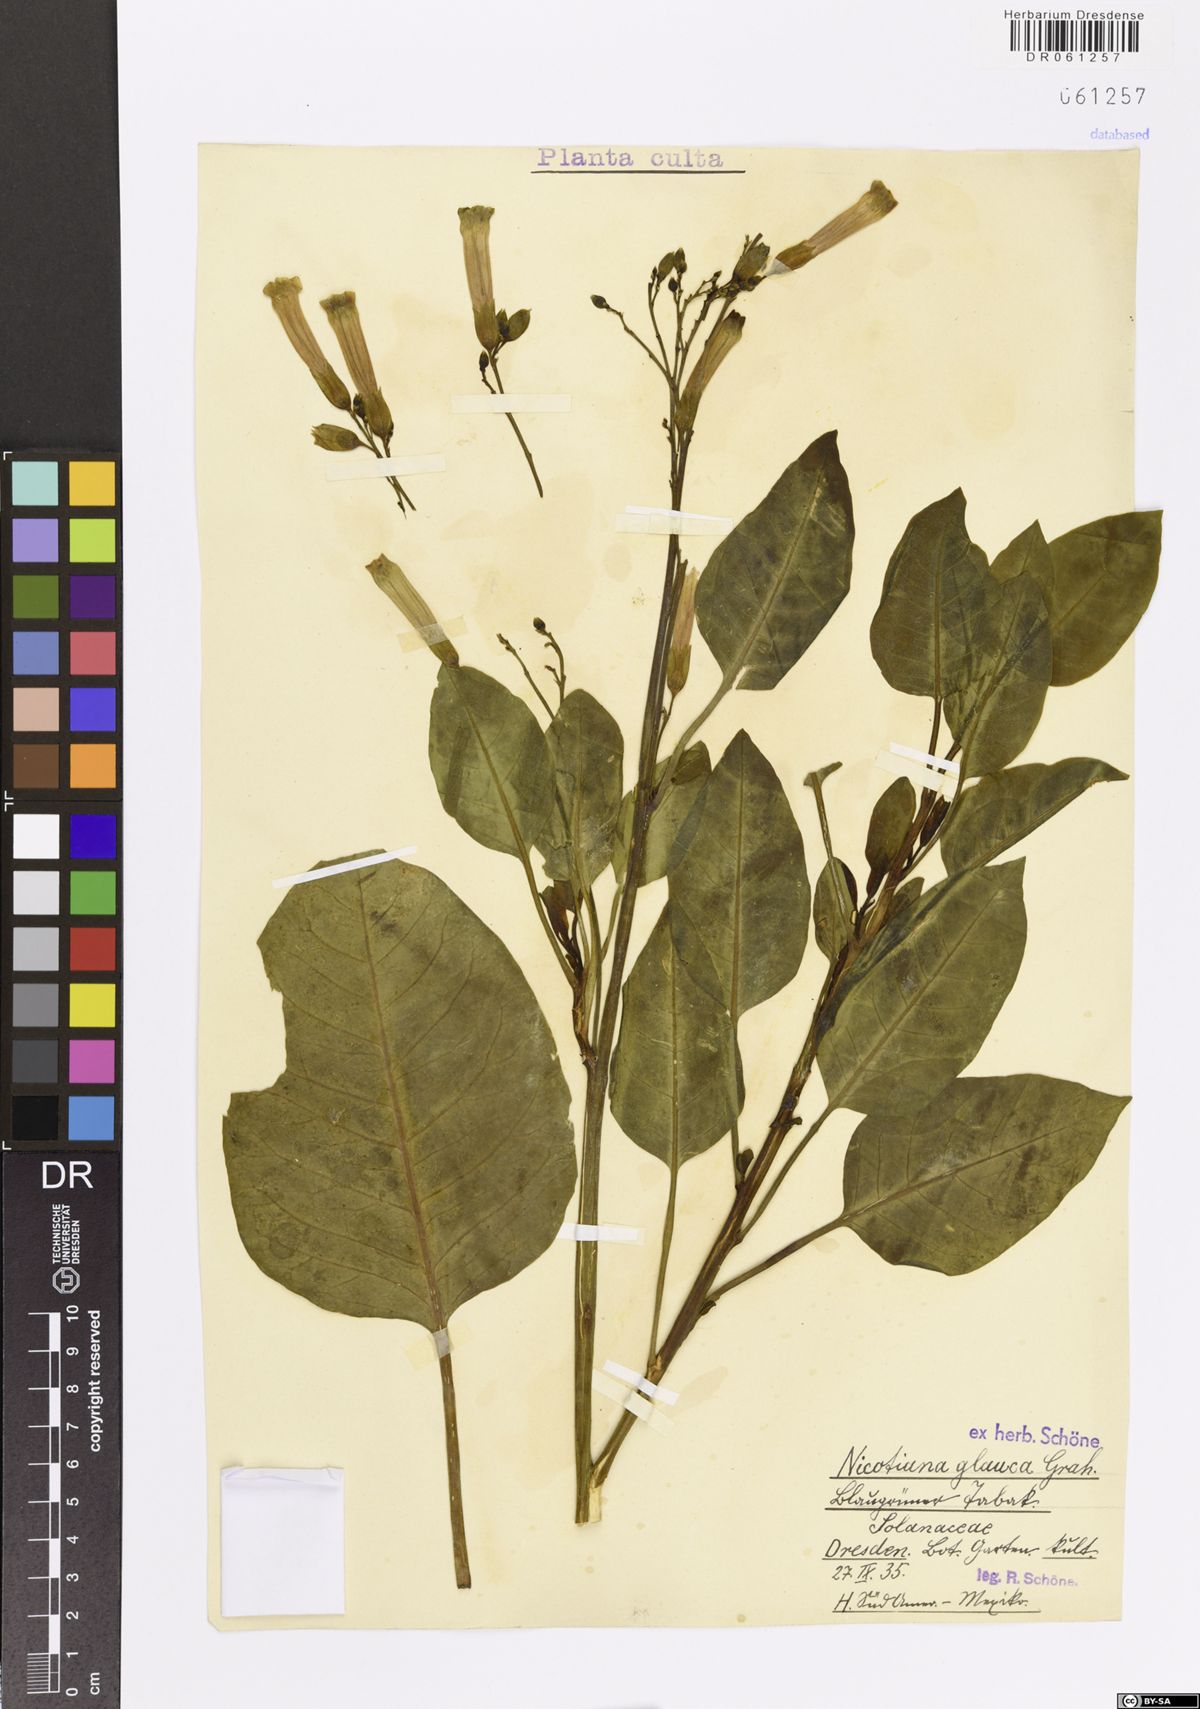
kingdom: Plantae
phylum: Tracheophyta
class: Magnoliopsida
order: Solanales
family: Solanaceae
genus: Nicotiana
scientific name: Nicotiana glauca
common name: Tree tobacco
